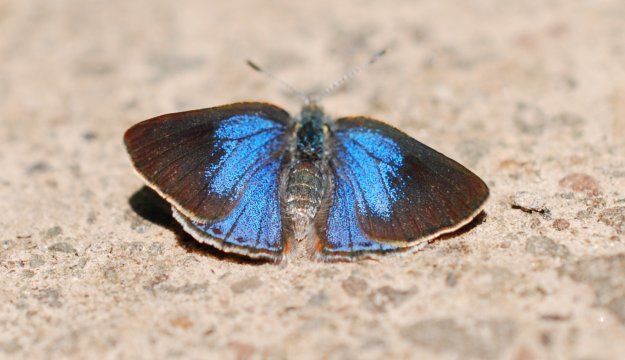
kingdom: Animalia
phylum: Arthropoda
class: Insecta
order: Lepidoptera
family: Lycaenidae
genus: Erora
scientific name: Erora laeta
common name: Early Hairstreak
